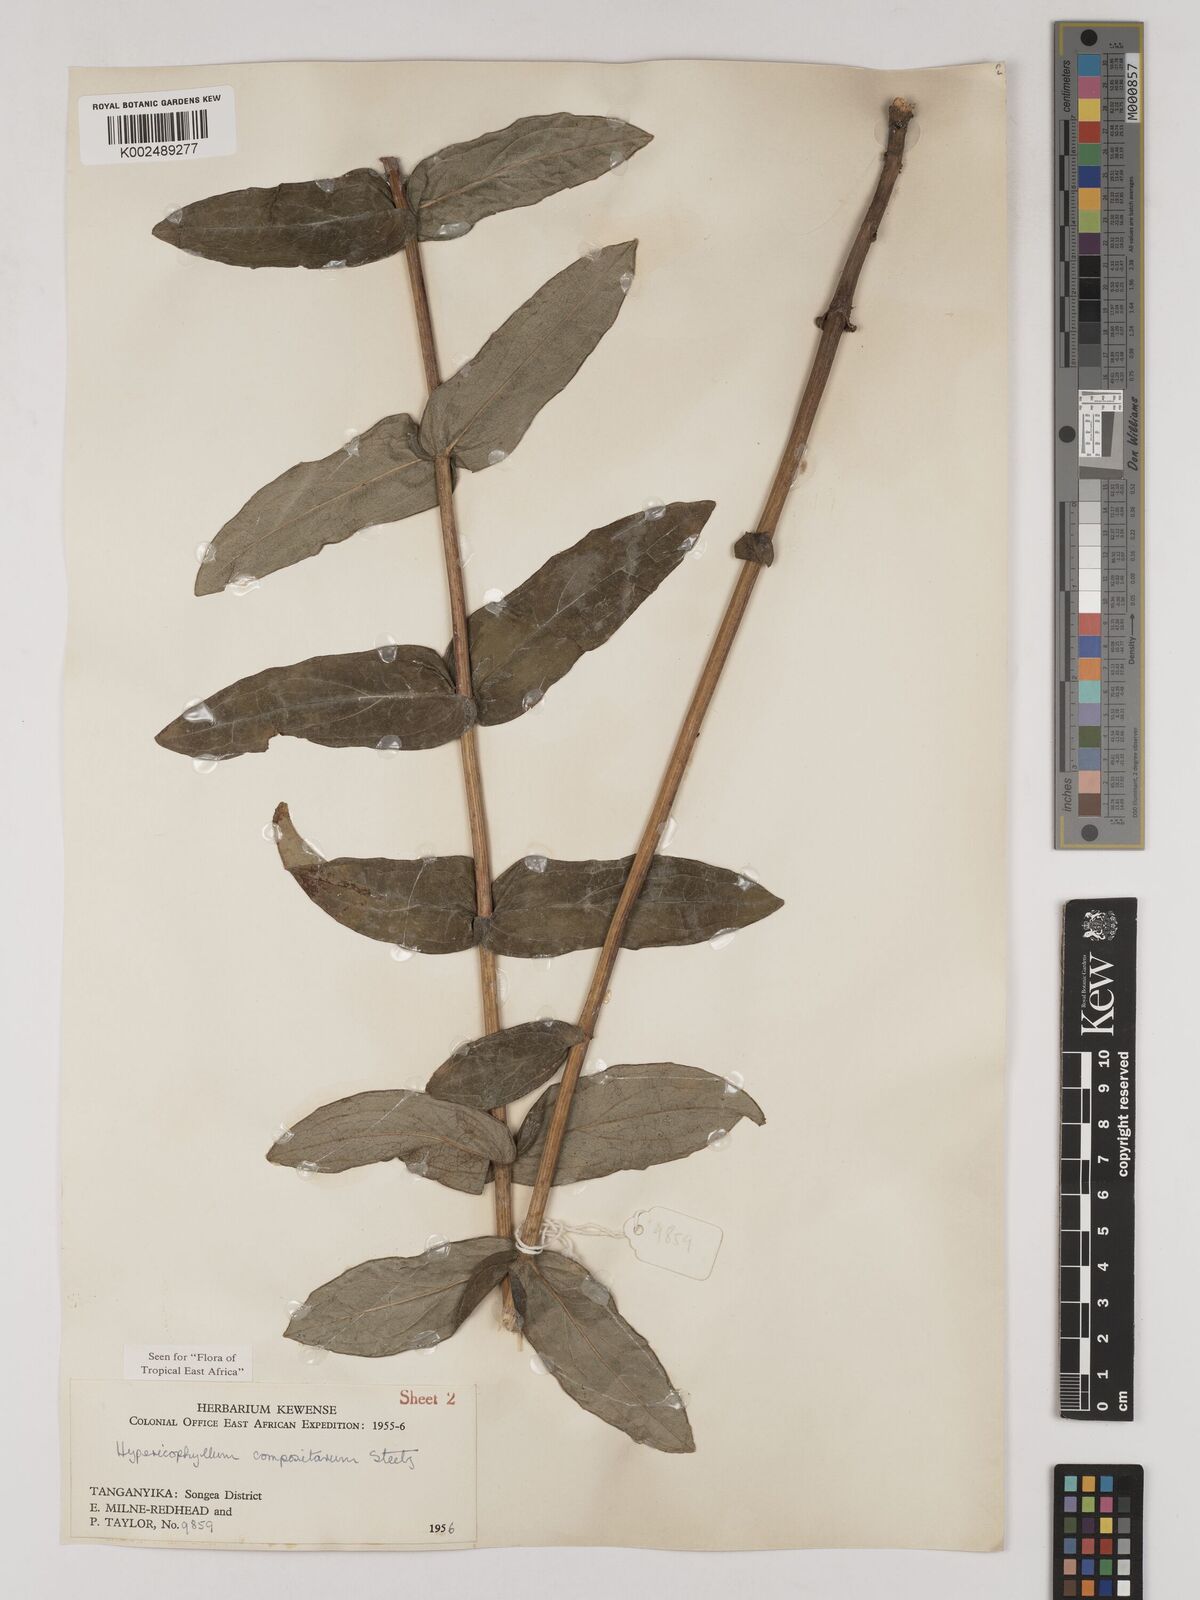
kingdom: Plantae
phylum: Tracheophyta
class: Magnoliopsida
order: Asterales
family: Asteraceae
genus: Hypericophyllum
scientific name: Hypericophyllum compositarum
